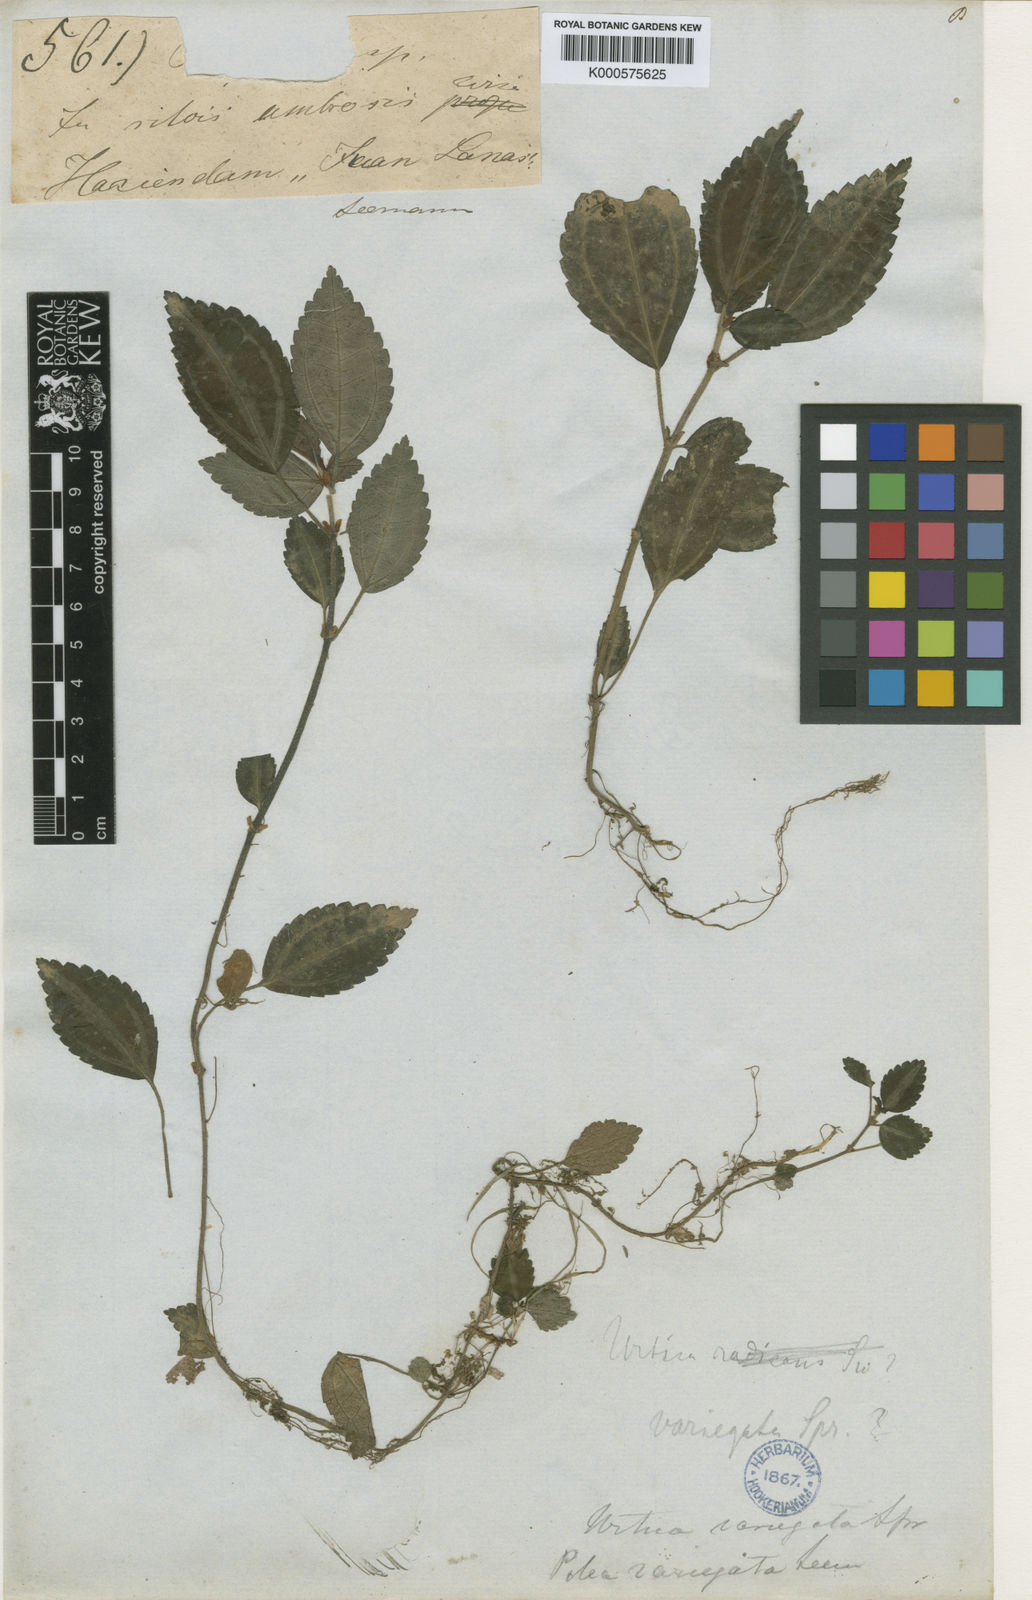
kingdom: Plantae
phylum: Tracheophyta
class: Magnoliopsida
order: Rosales
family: Urticaceae
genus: Pilea
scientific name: Pilea variegata
